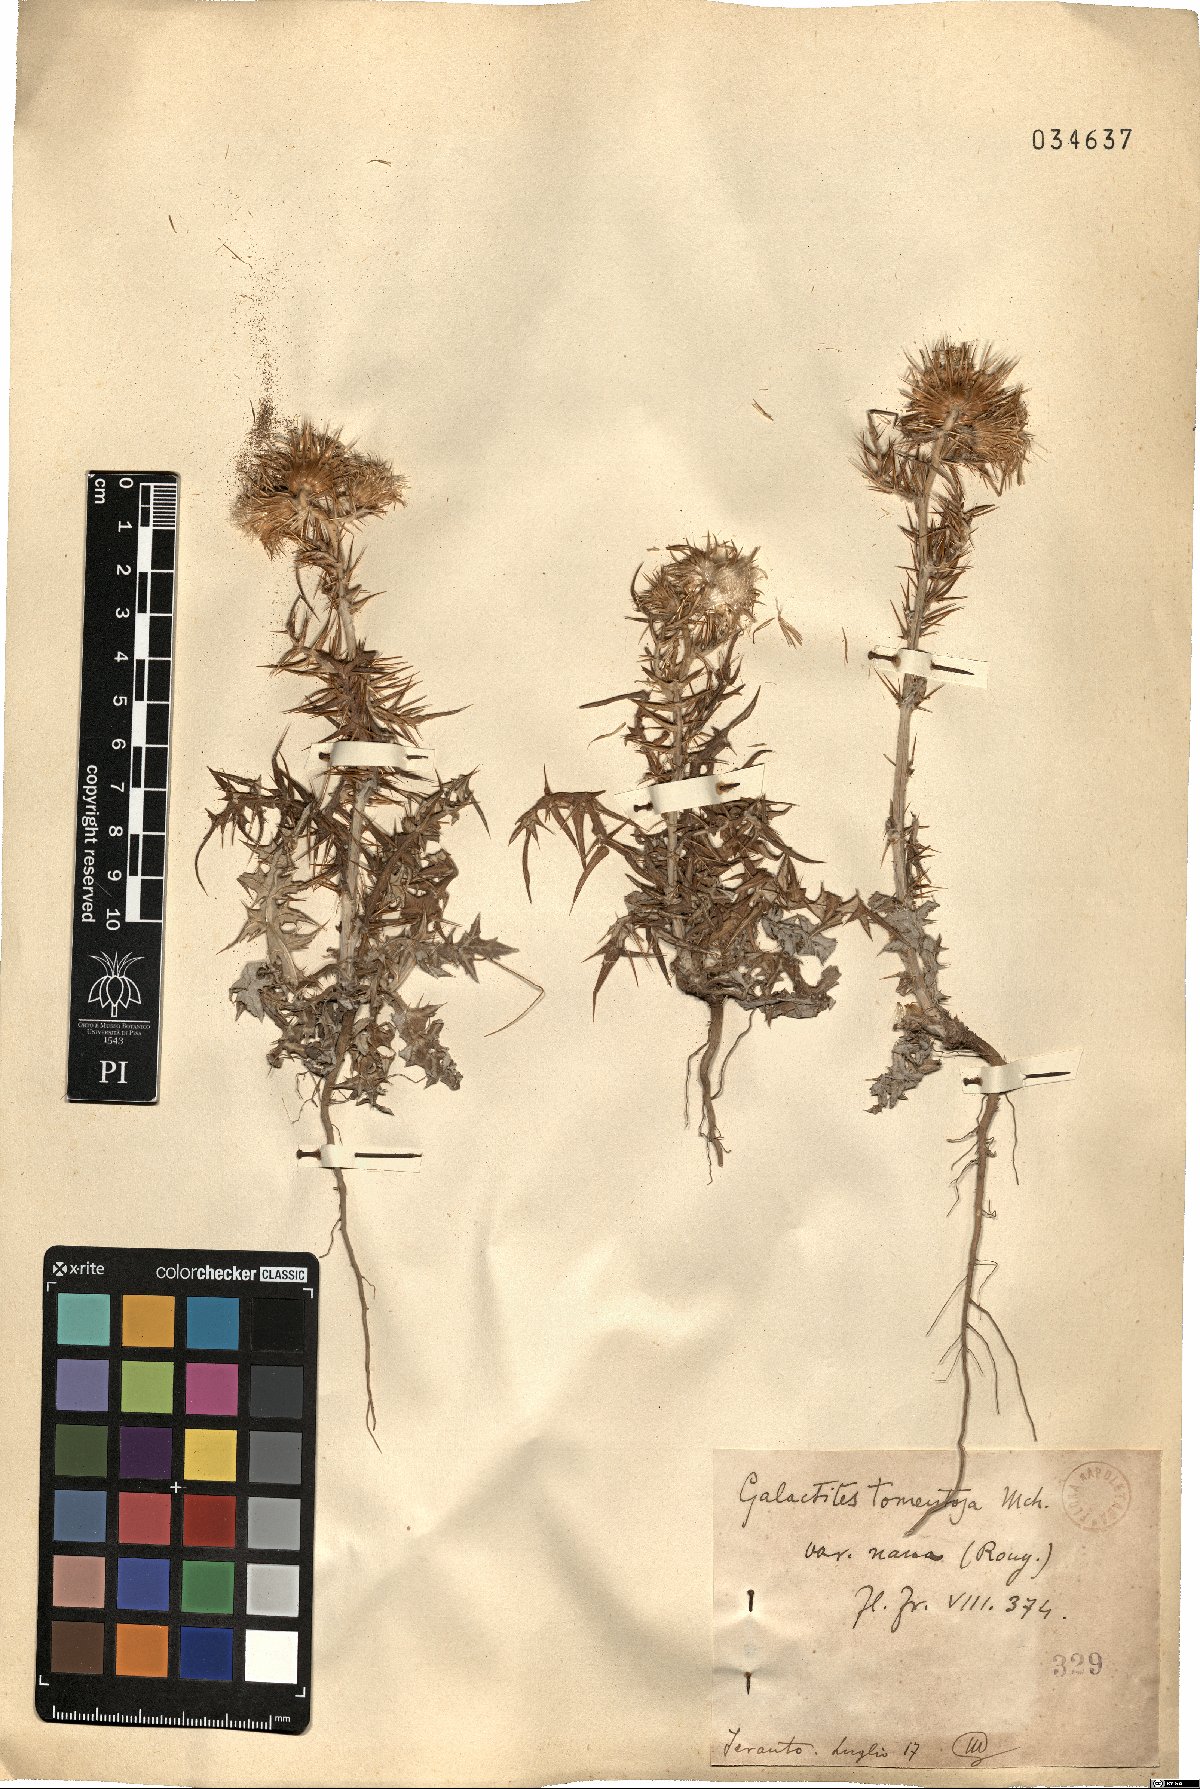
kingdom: Plantae
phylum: Tracheophyta
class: Magnoliopsida
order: Asterales
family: Asteraceae
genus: Galactites
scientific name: Galactites tomentosa
